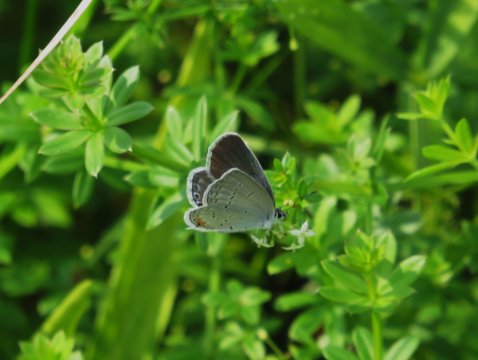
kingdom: Animalia
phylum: Arthropoda
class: Insecta
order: Lepidoptera
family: Lycaenidae
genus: Elkalyce
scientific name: Elkalyce comyntas
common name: Eastern Tailed-Blue
